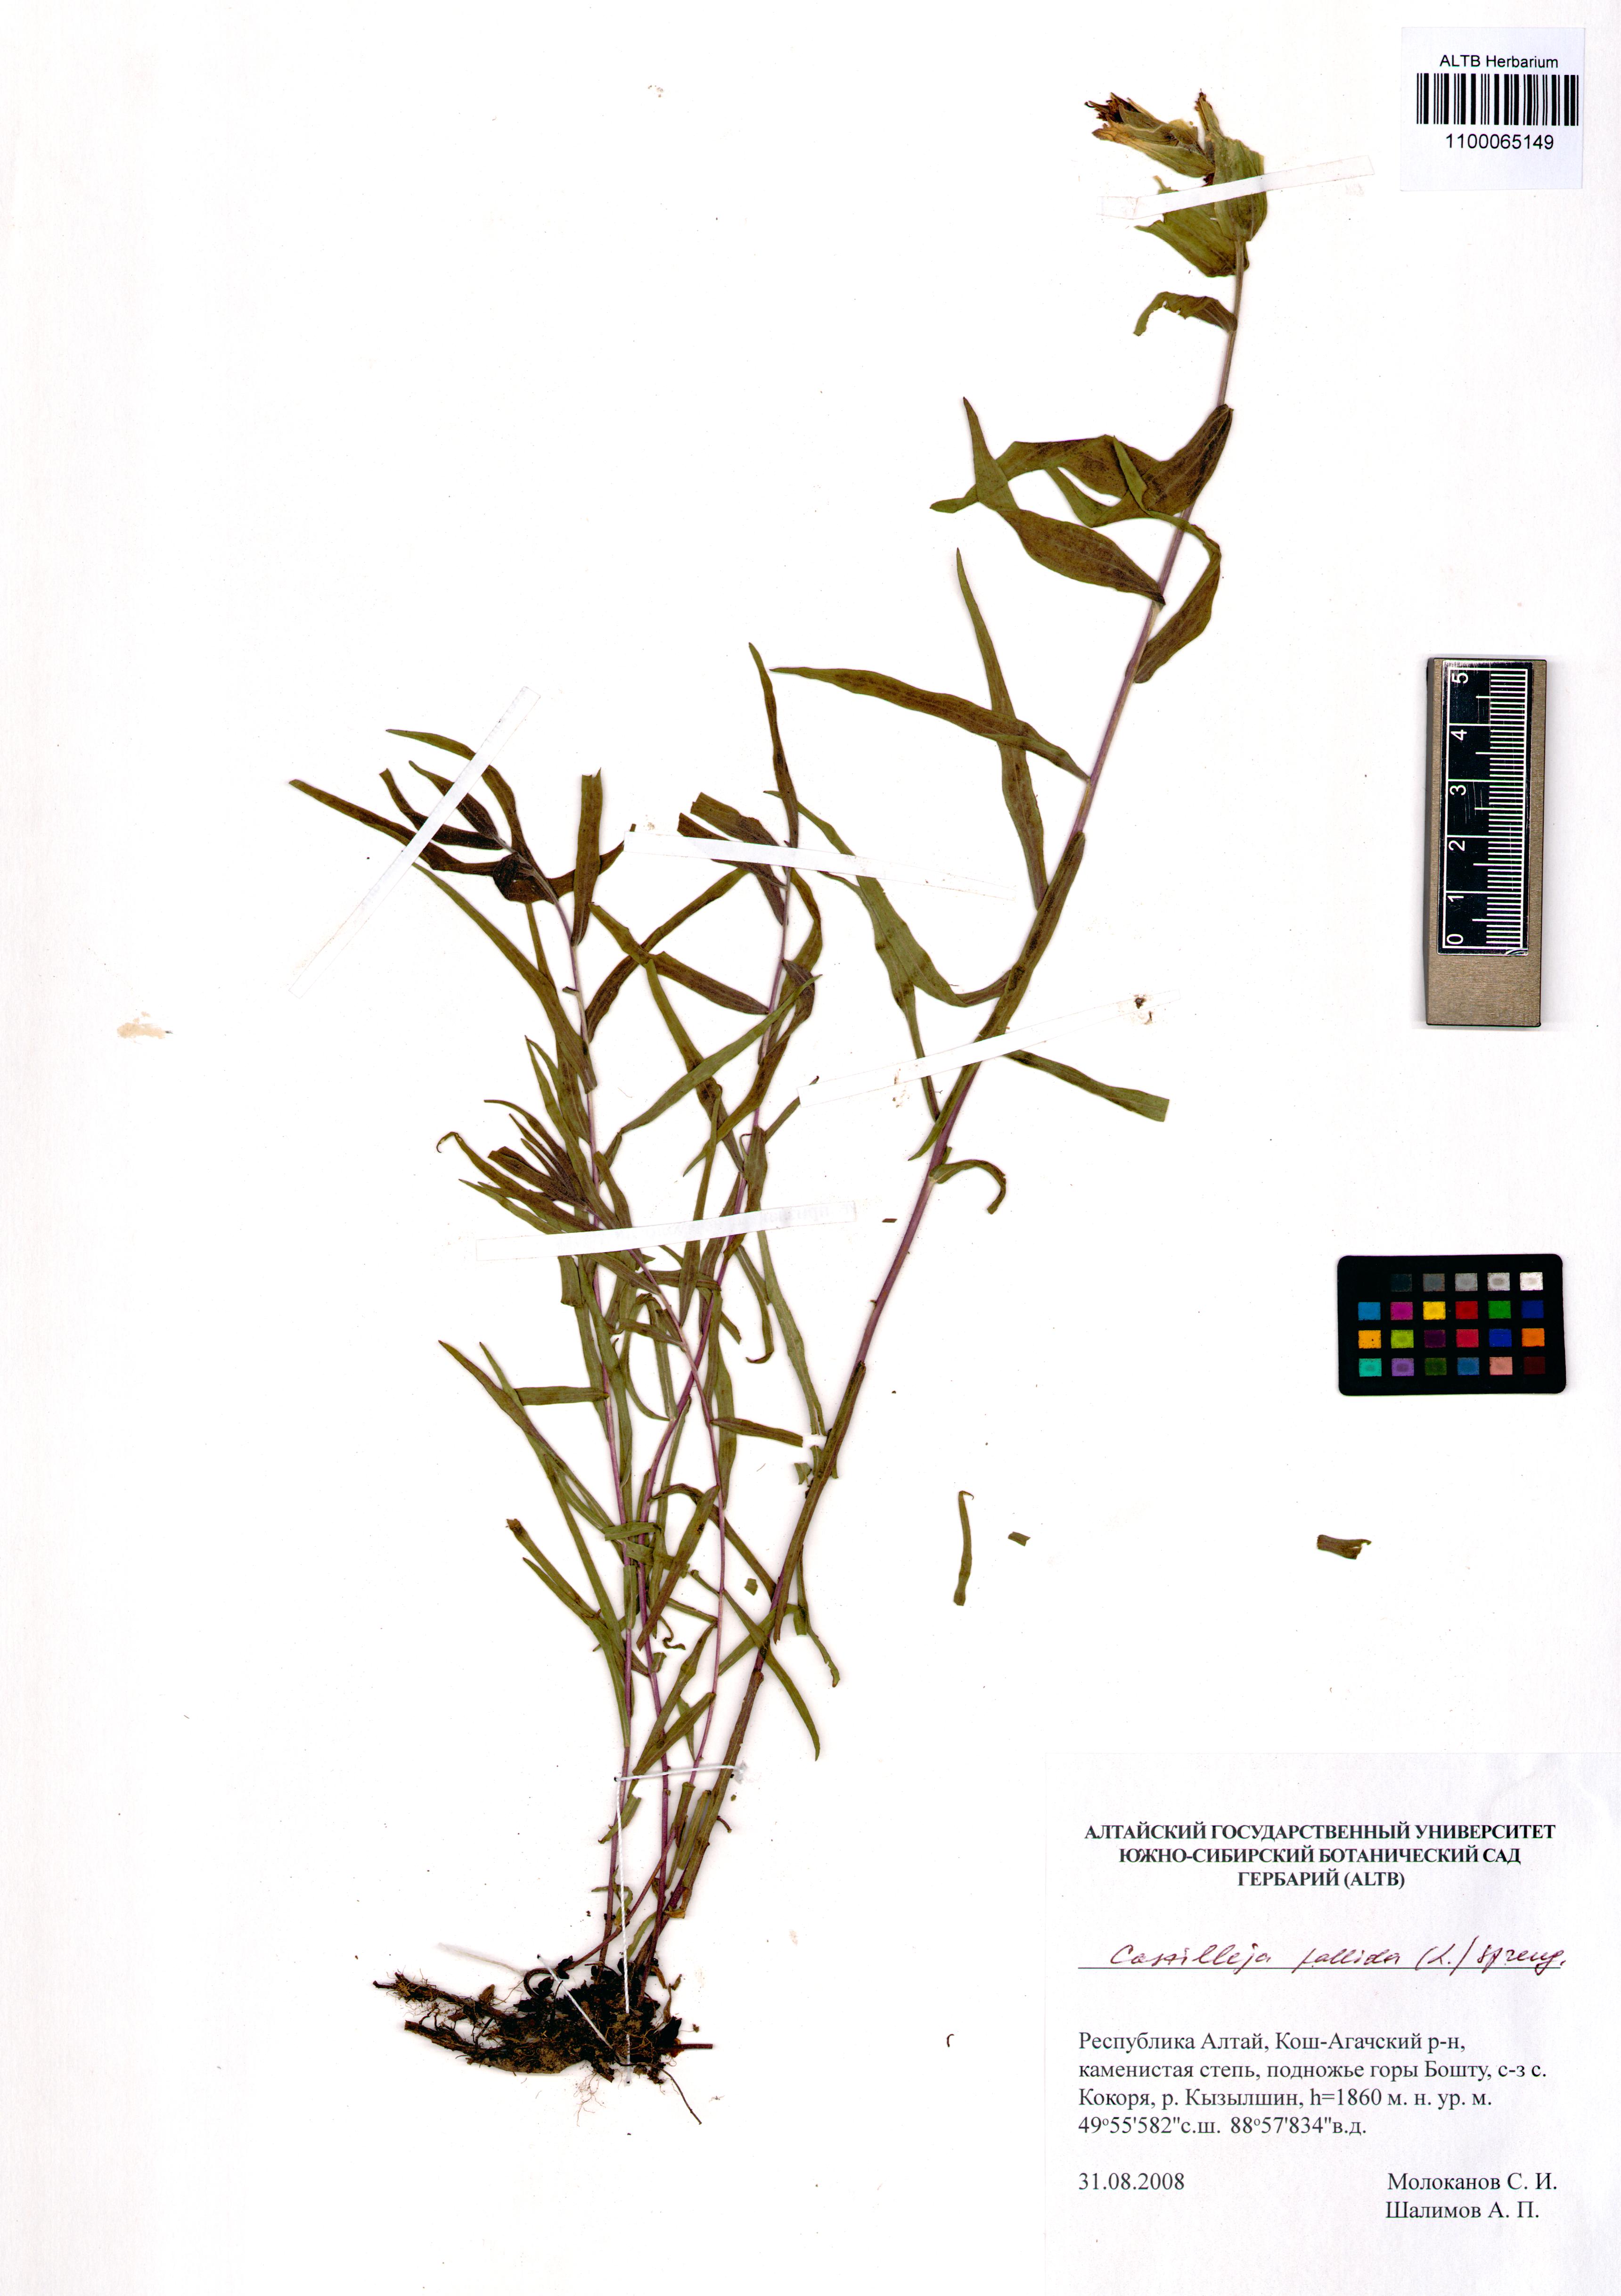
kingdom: Plantae
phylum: Tracheophyta
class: Magnoliopsida
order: Lamiales
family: Orobanchaceae
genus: Castilleja
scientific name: Castilleja pallida
